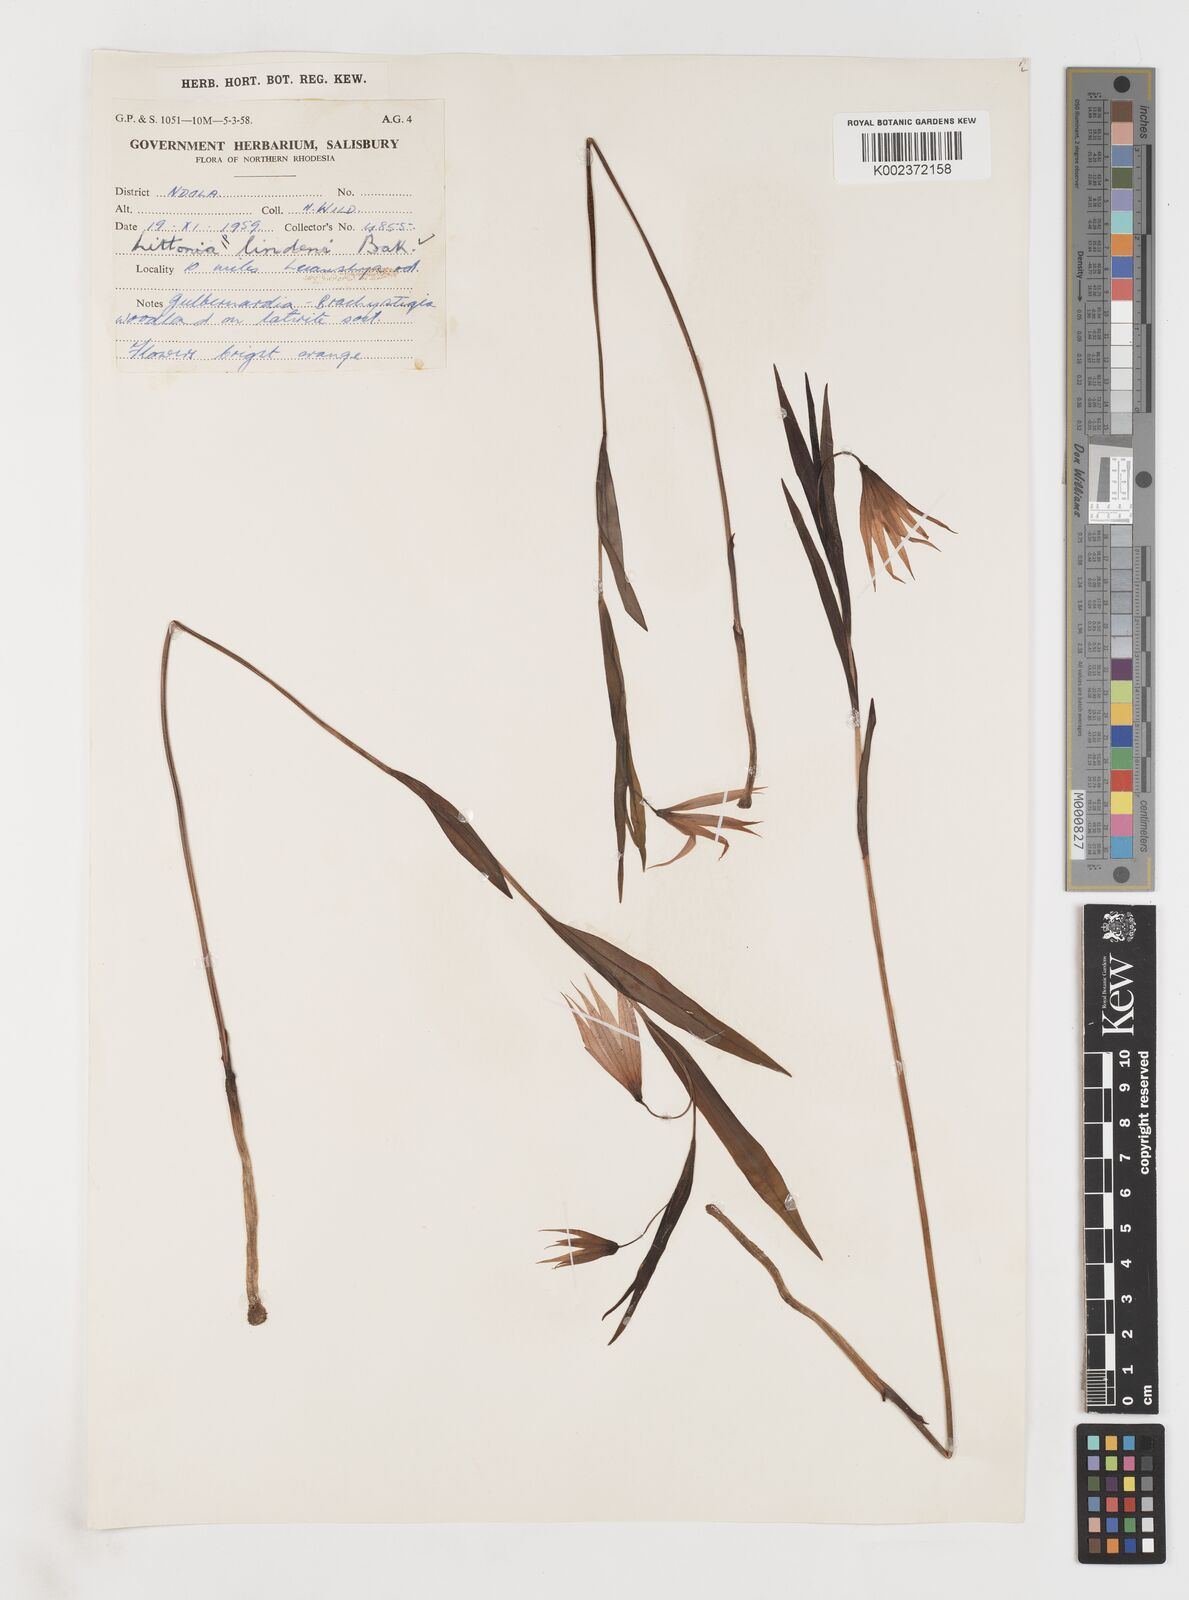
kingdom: Plantae
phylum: Tracheophyta
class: Liliopsida
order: Liliales
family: Colchicaceae
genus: Gloriosa
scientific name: Gloriosa lindenii
